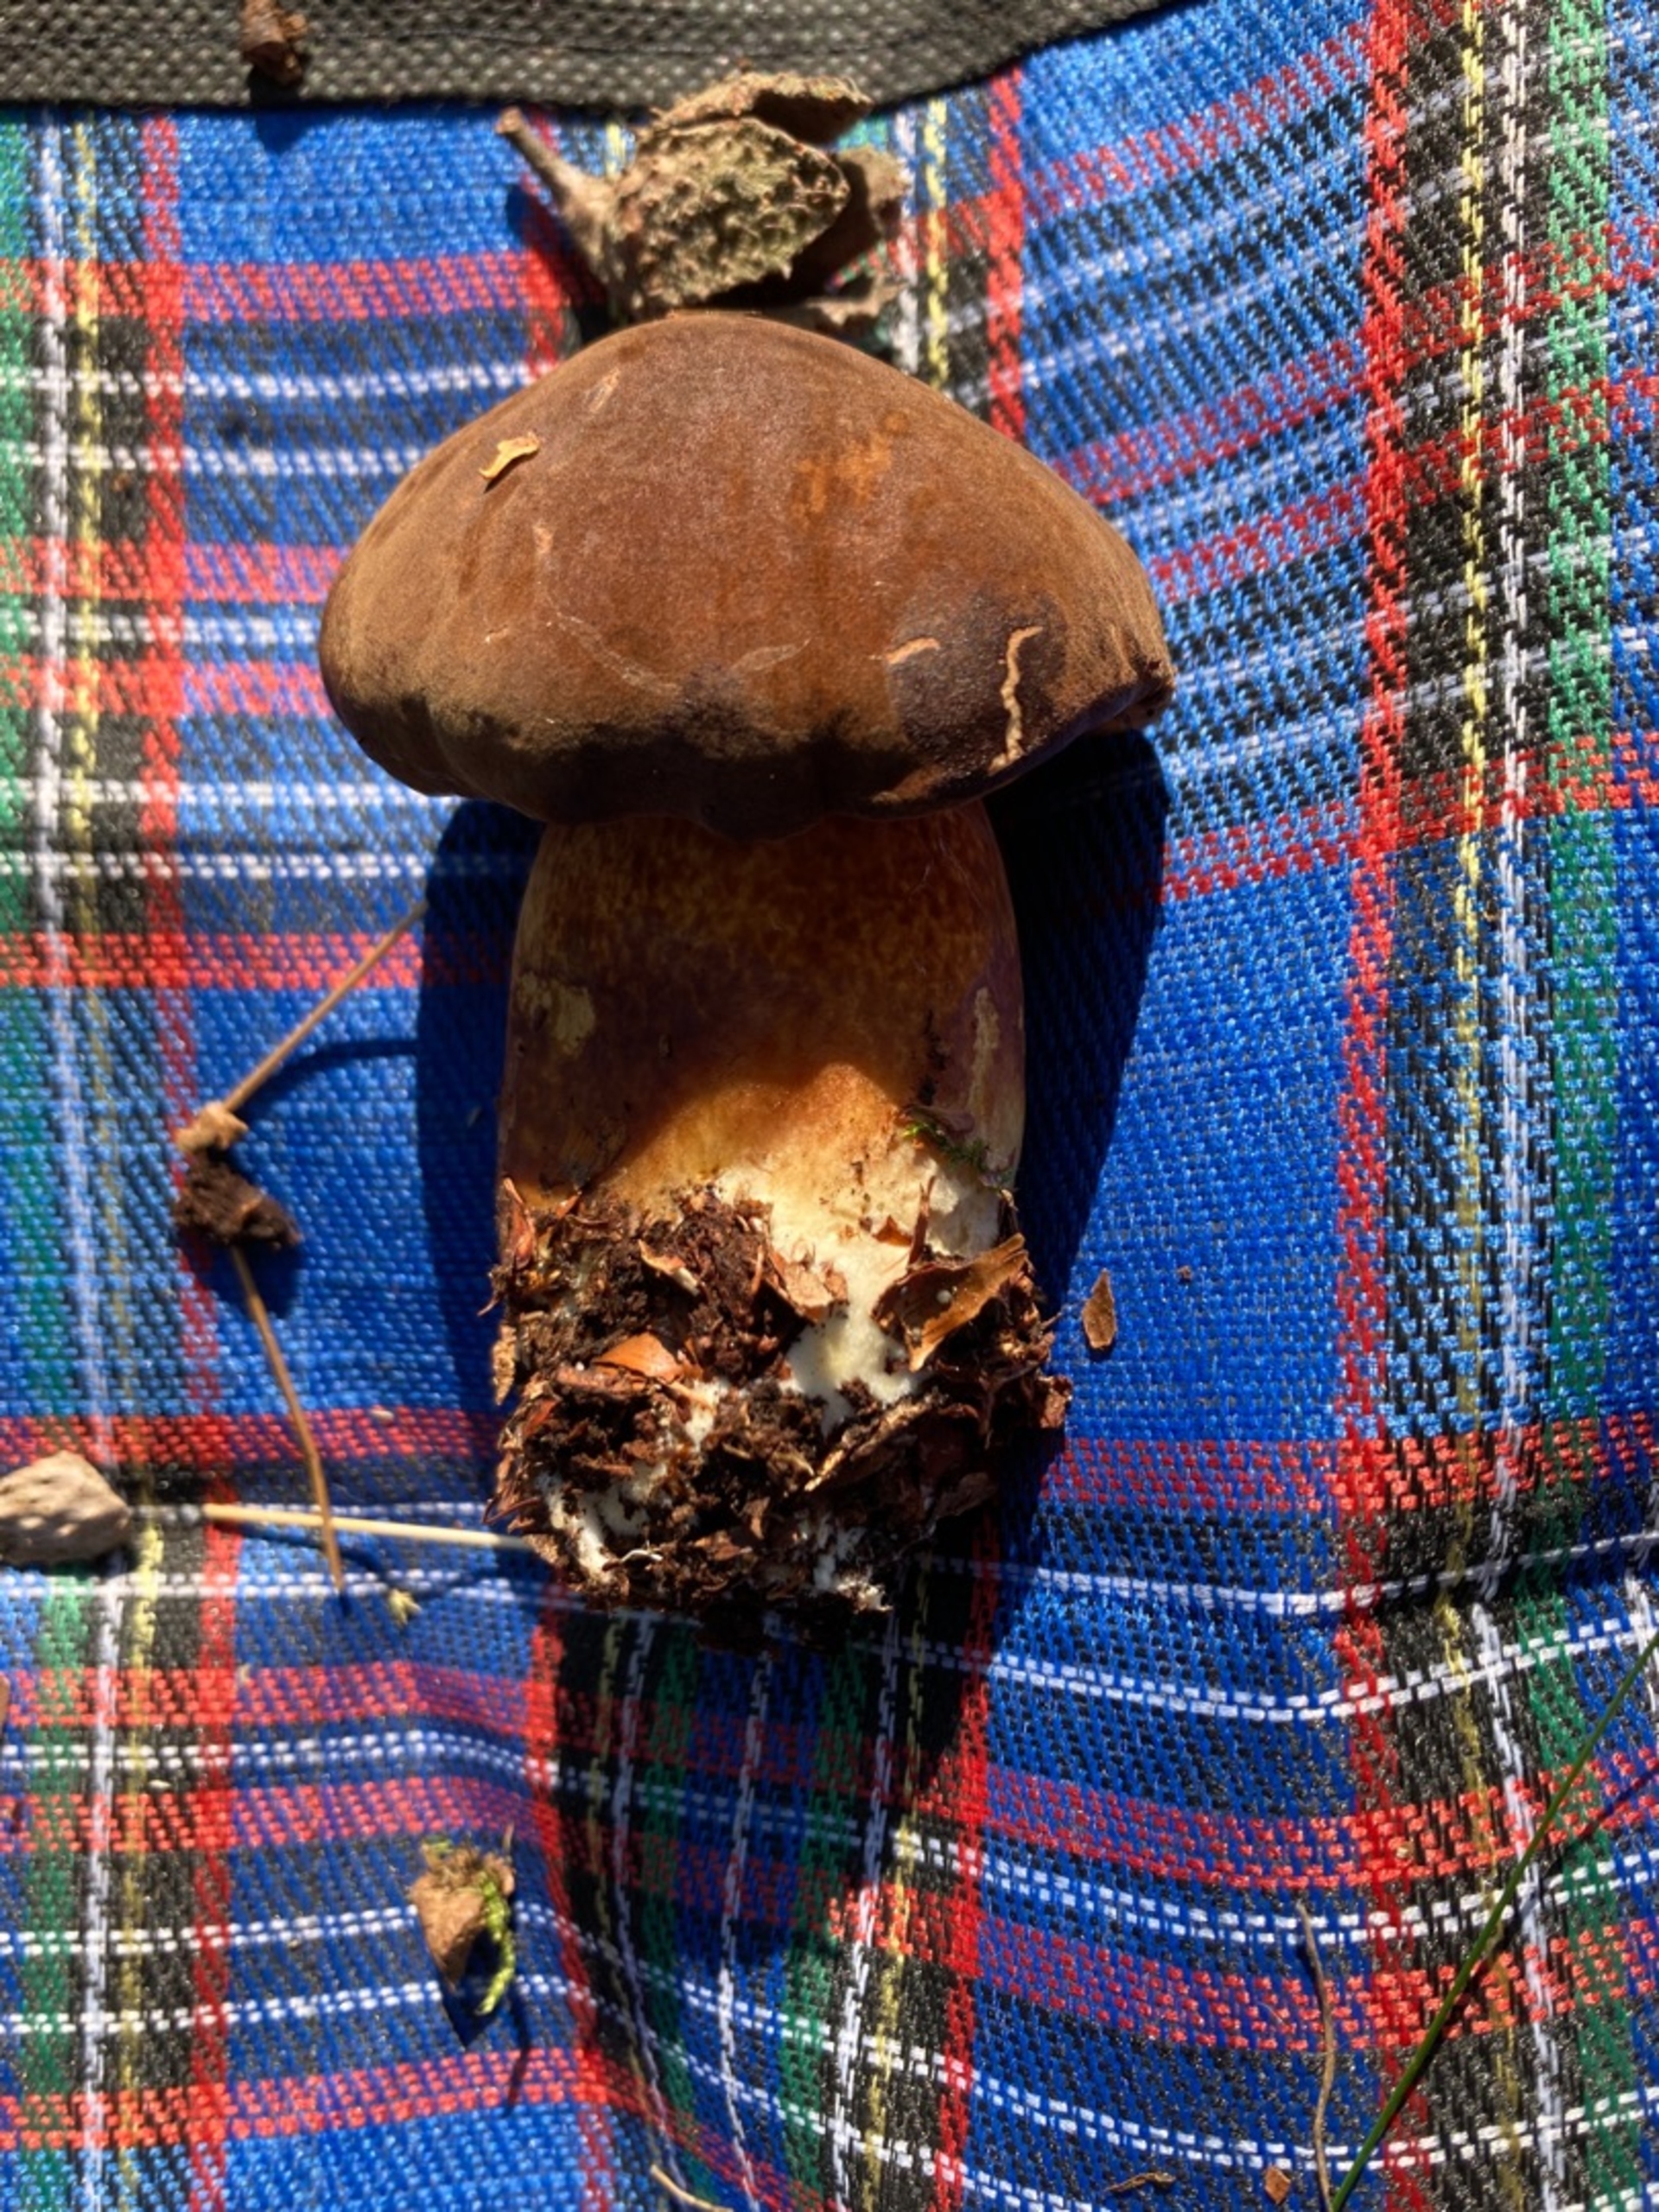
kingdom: Fungi
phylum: Basidiomycota
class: Agaricomycetes
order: Boletales
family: Boletaceae
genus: Imleria
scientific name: Imleria badia
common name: Brunstokket rørhat
